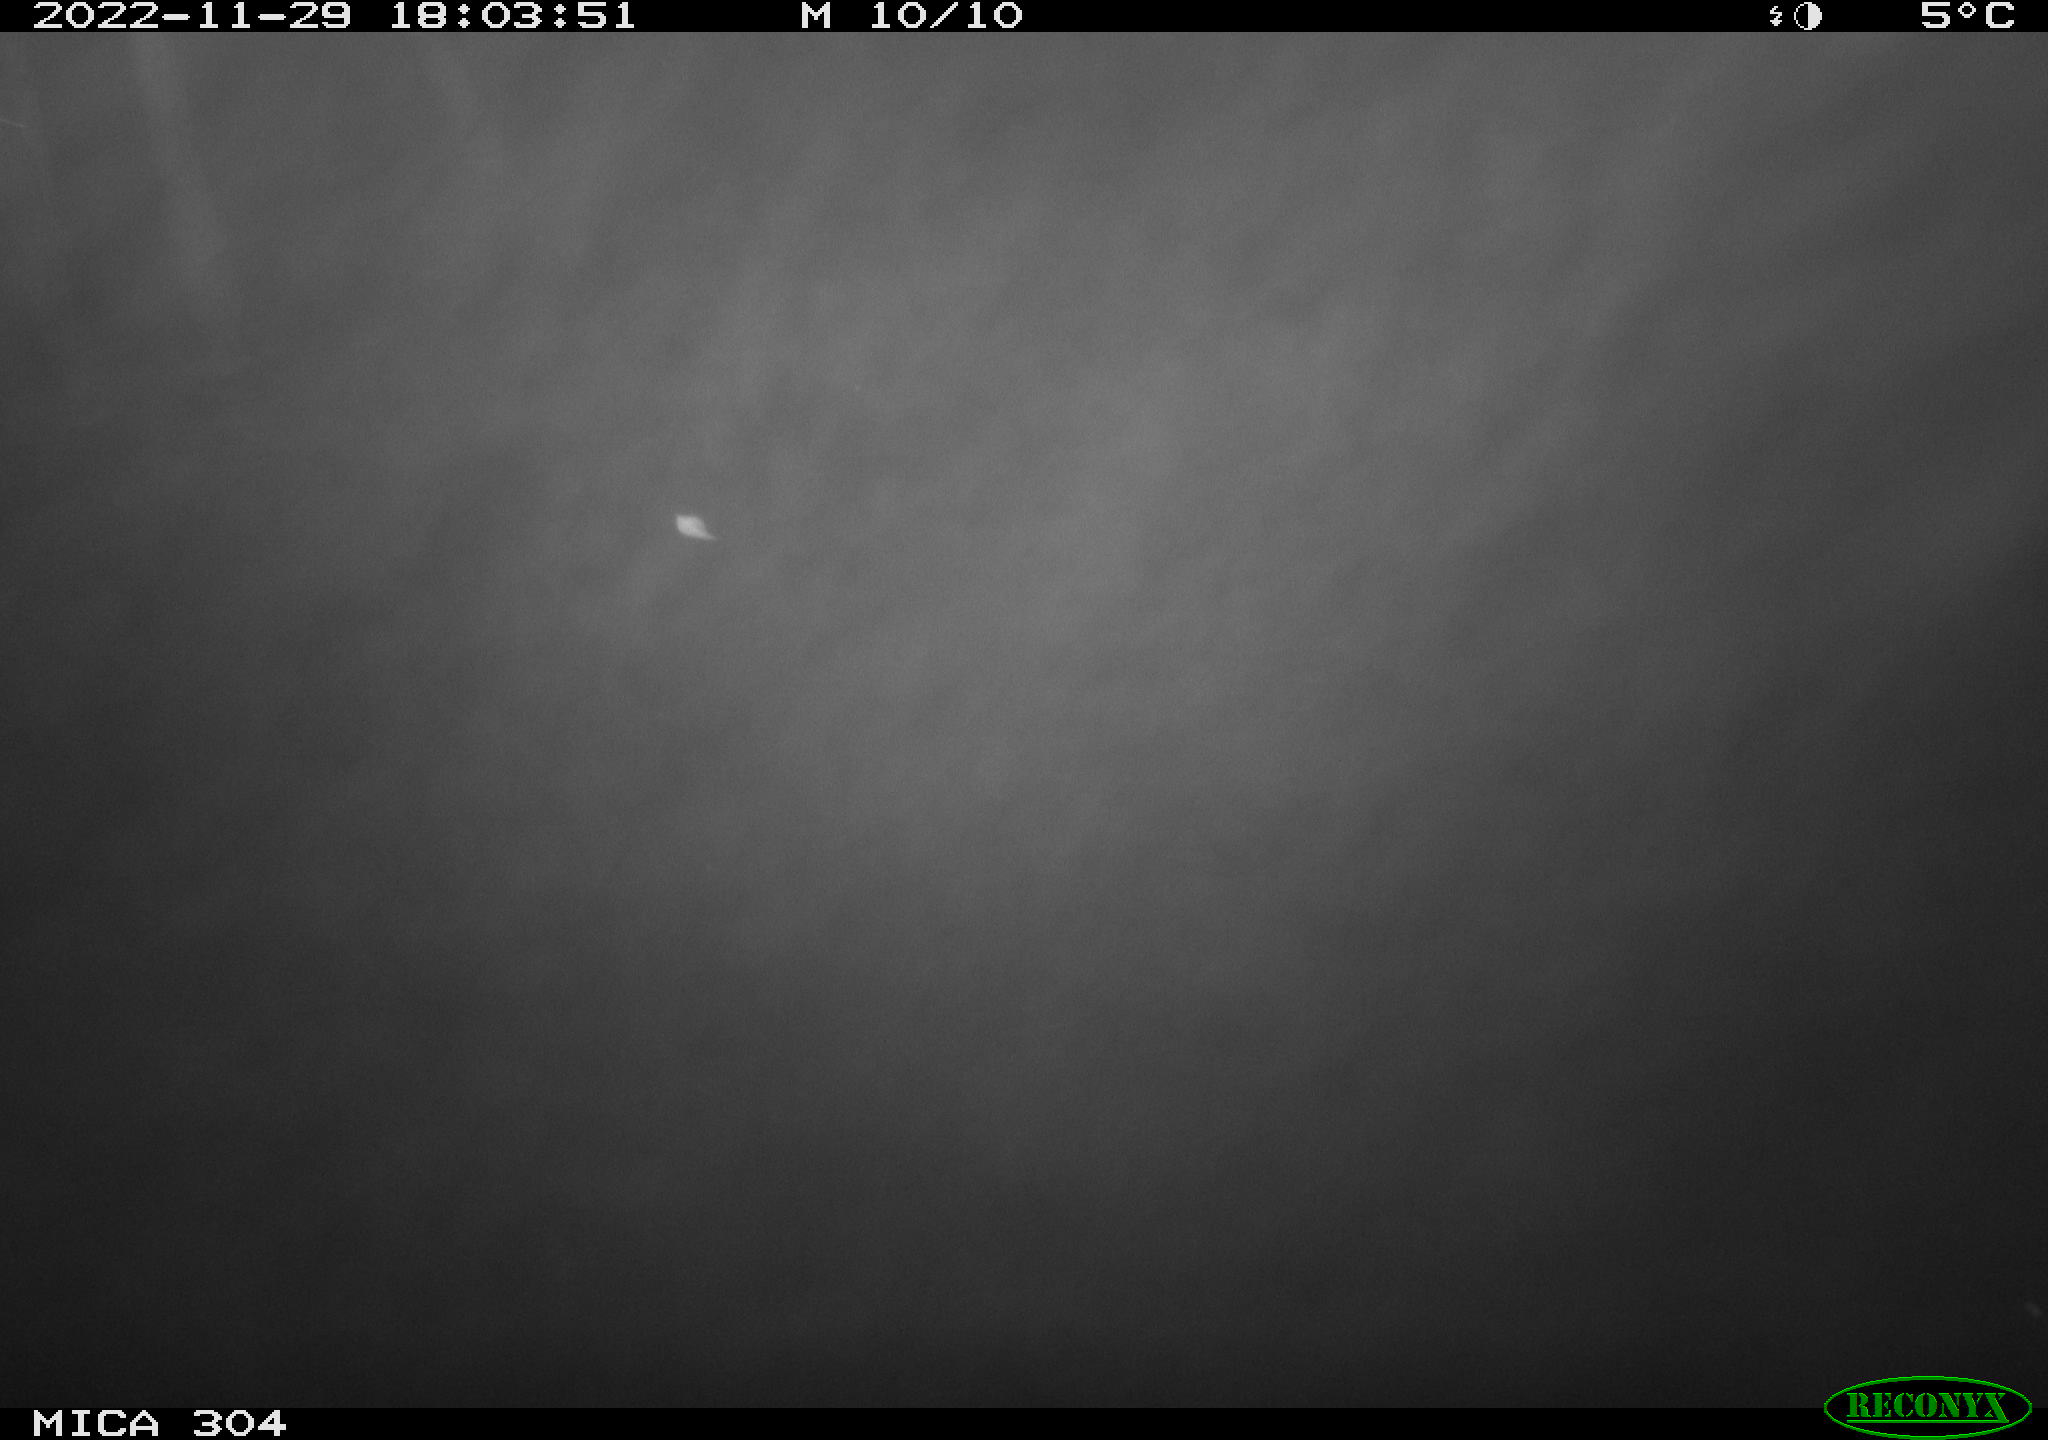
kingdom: Animalia
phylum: Chordata
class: Aves
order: Anseriformes
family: Anatidae
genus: Anas
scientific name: Anas
